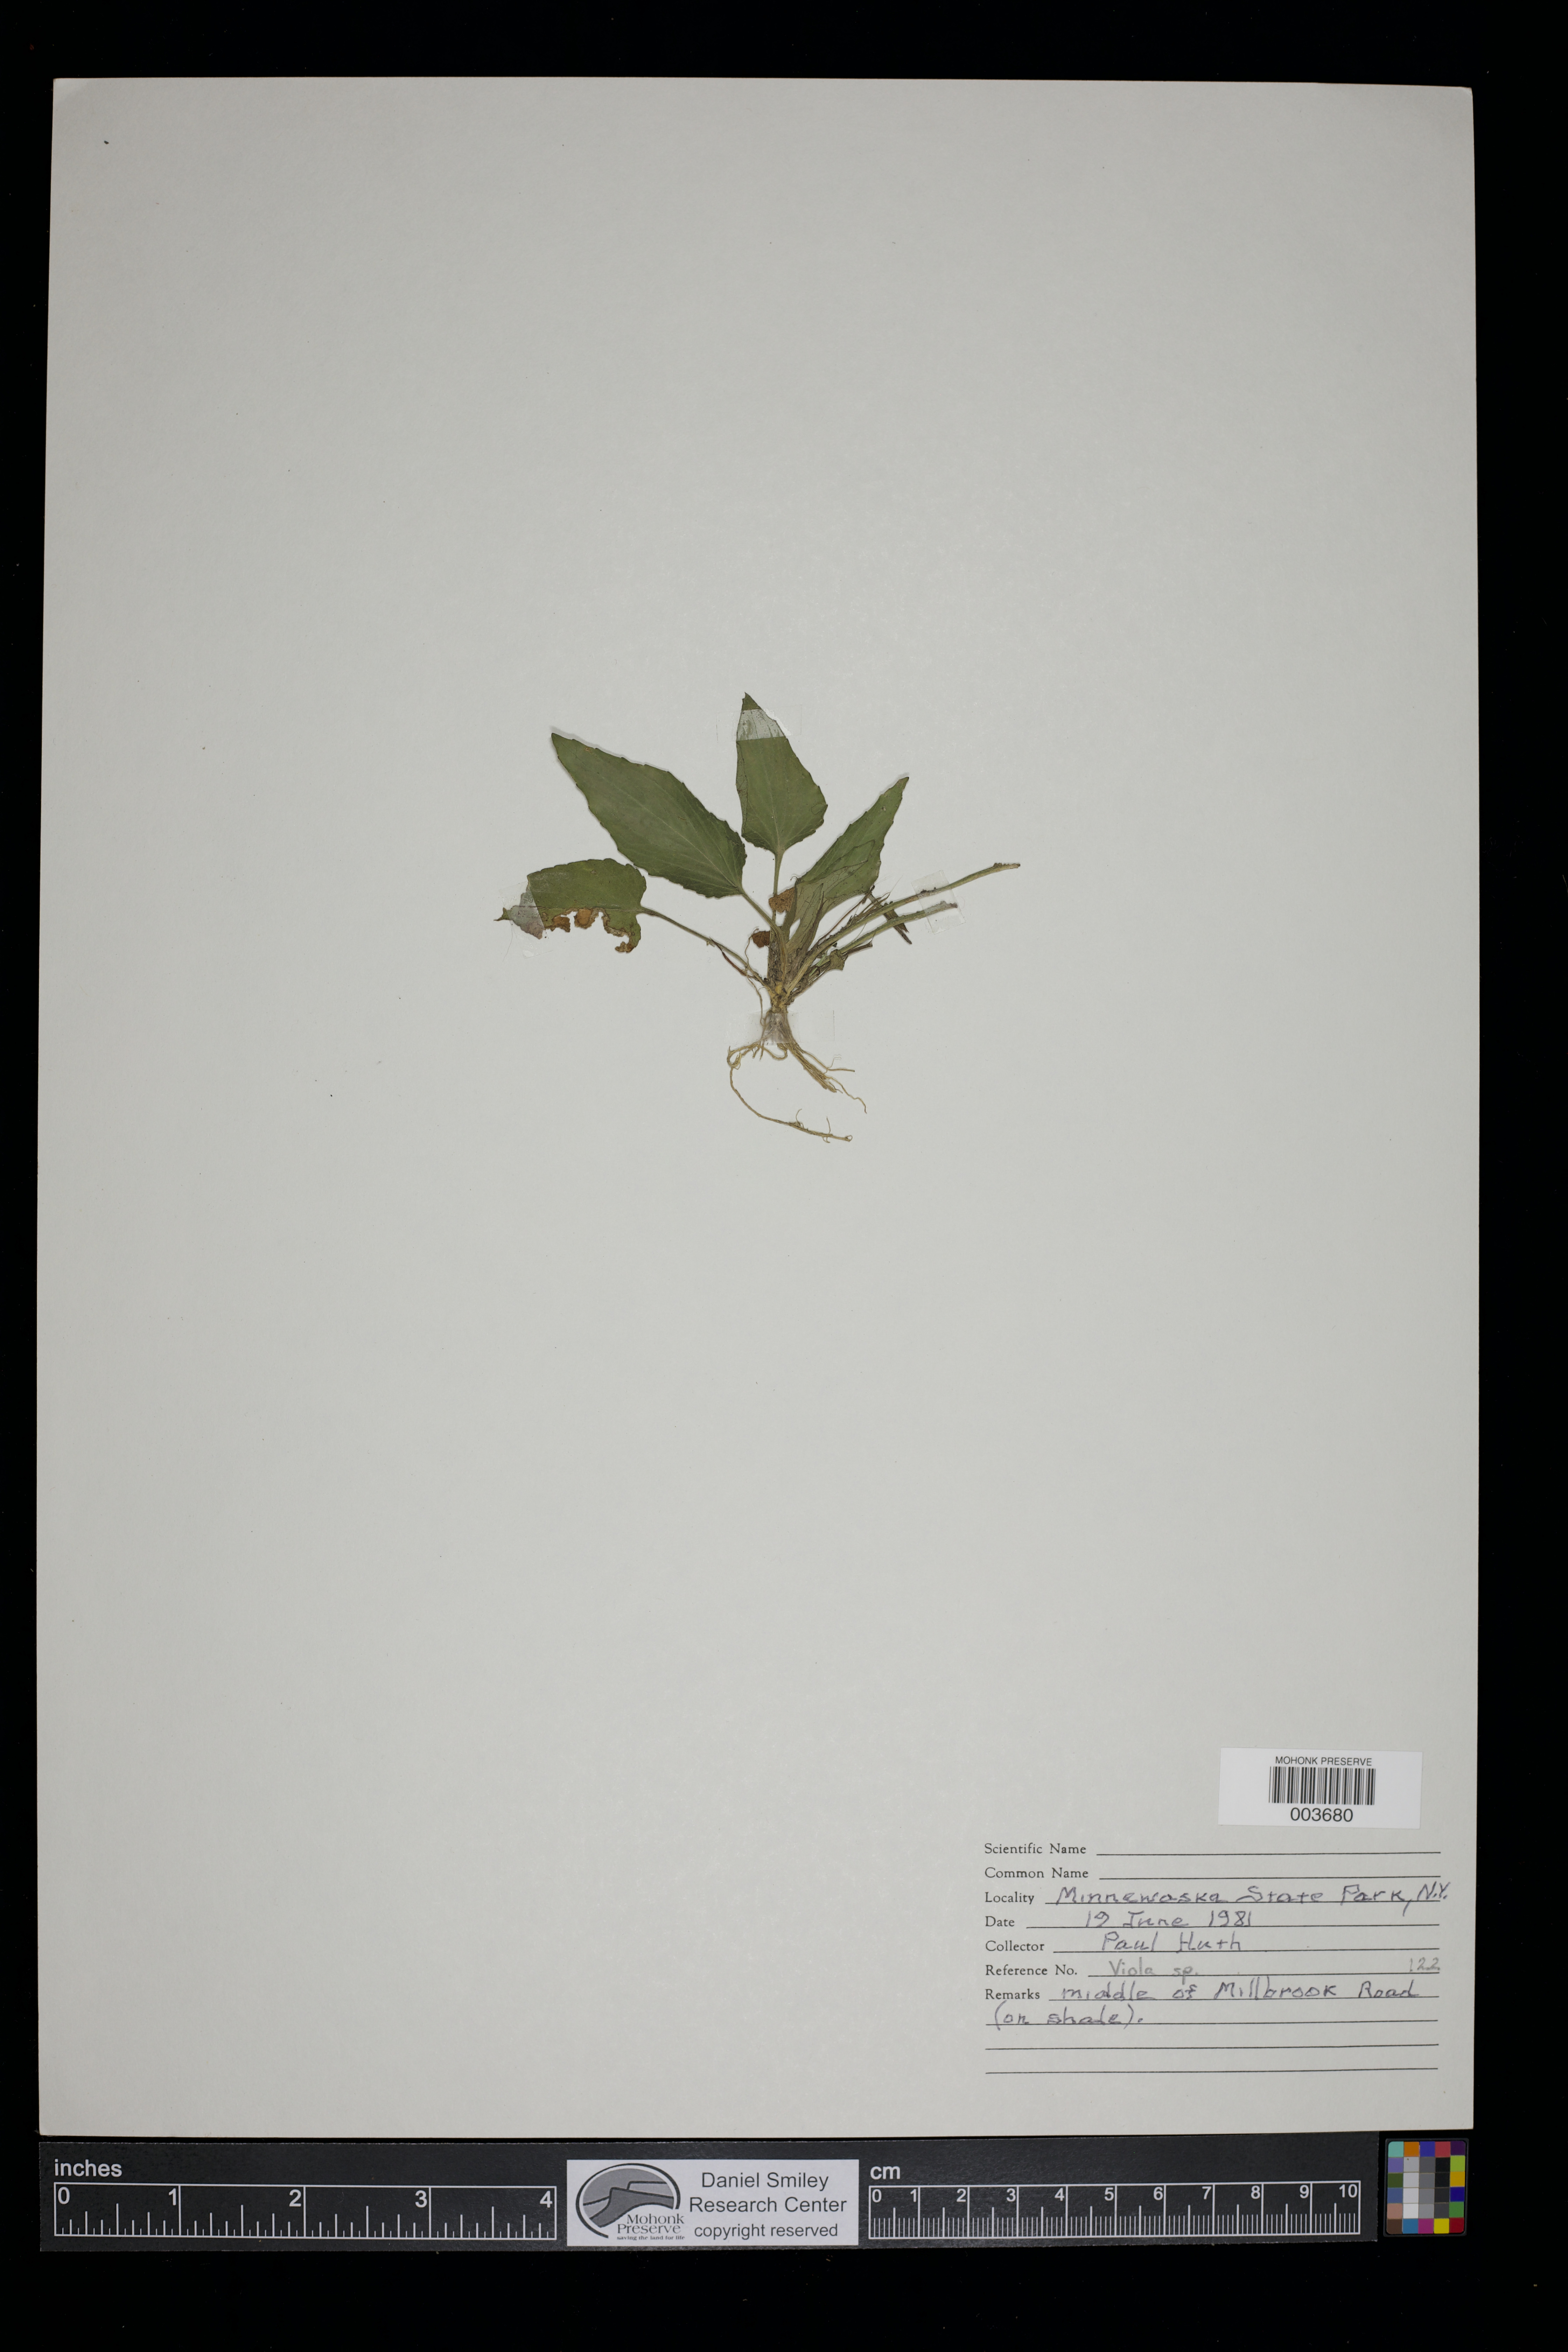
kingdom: Plantae
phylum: Tracheophyta
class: Magnoliopsida
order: Malpighiales
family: Violaceae
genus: Viola
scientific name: Viola
